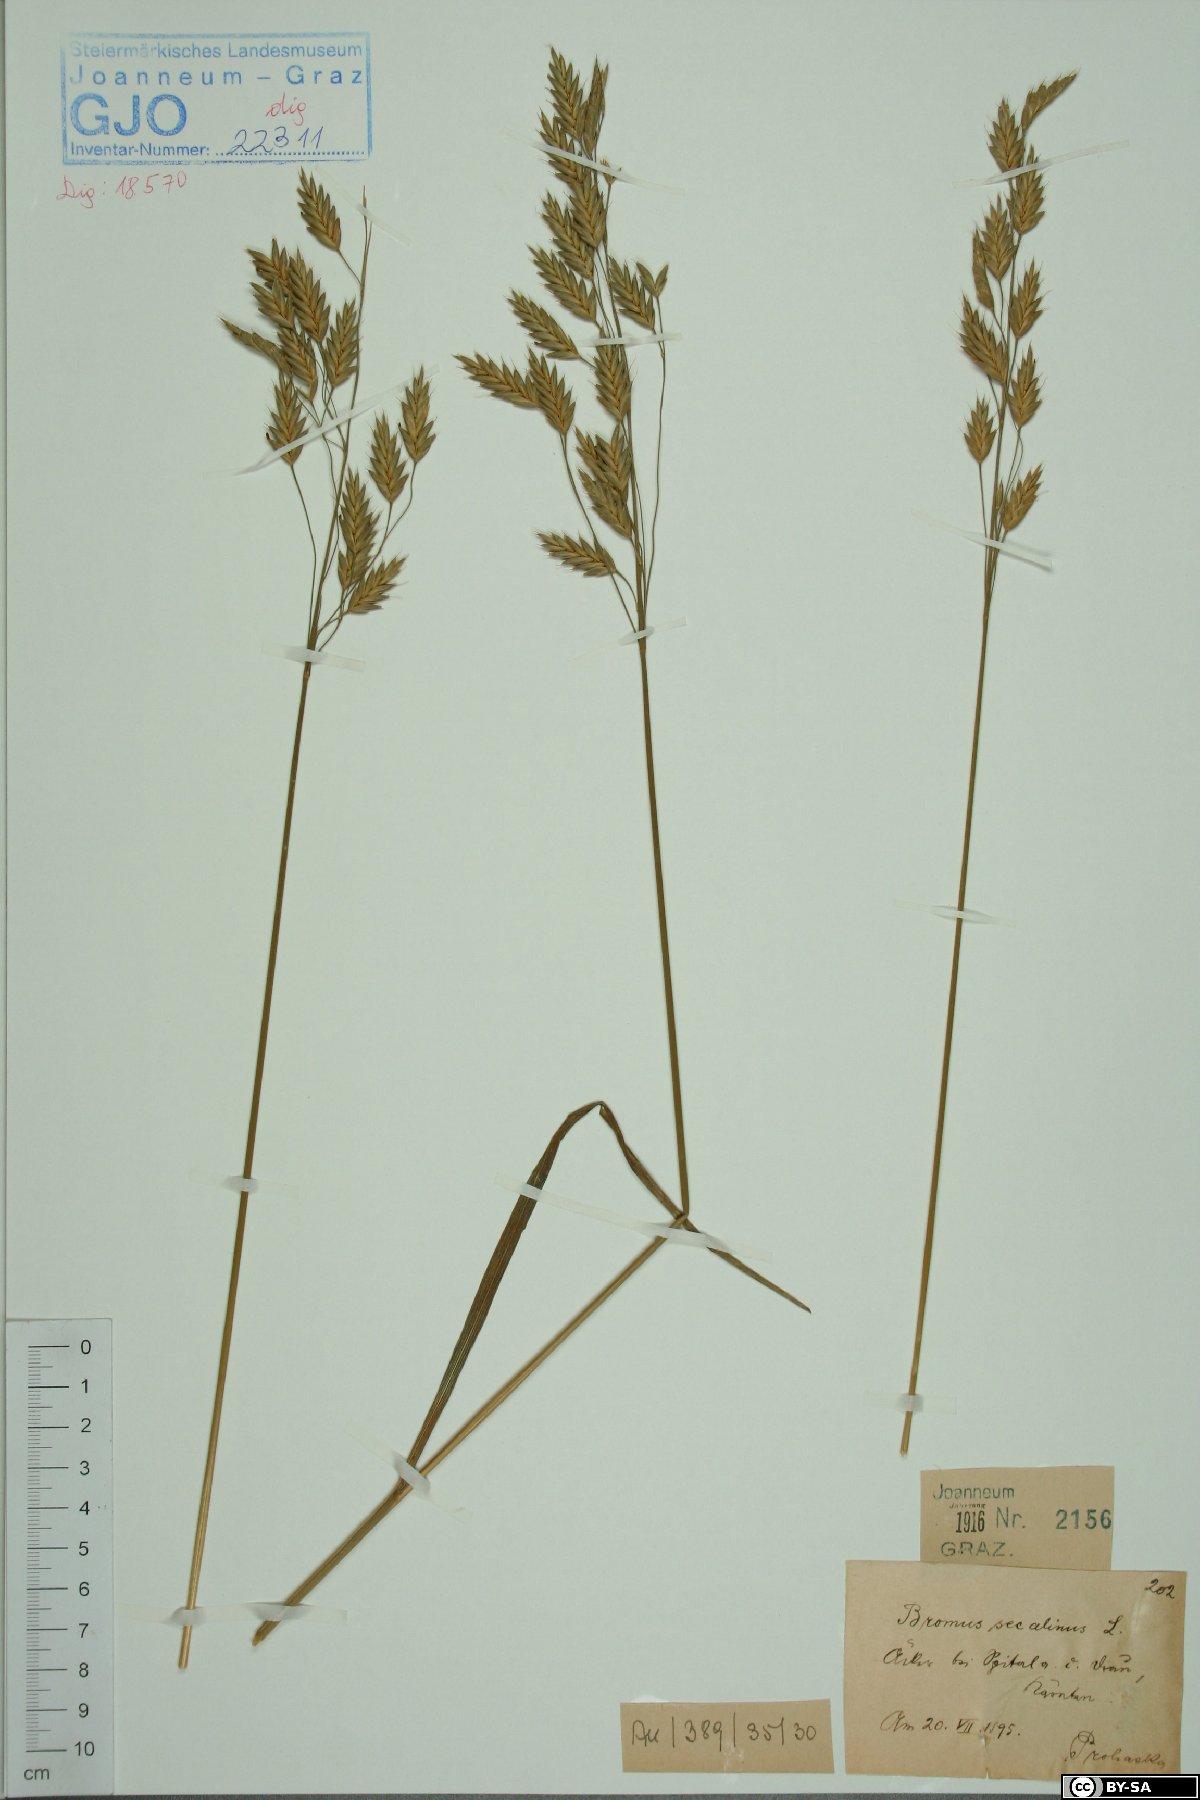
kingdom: Plantae
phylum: Tracheophyta
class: Liliopsida
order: Poales
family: Poaceae
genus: Bromus
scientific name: Bromus secalinus
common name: Rye brome
